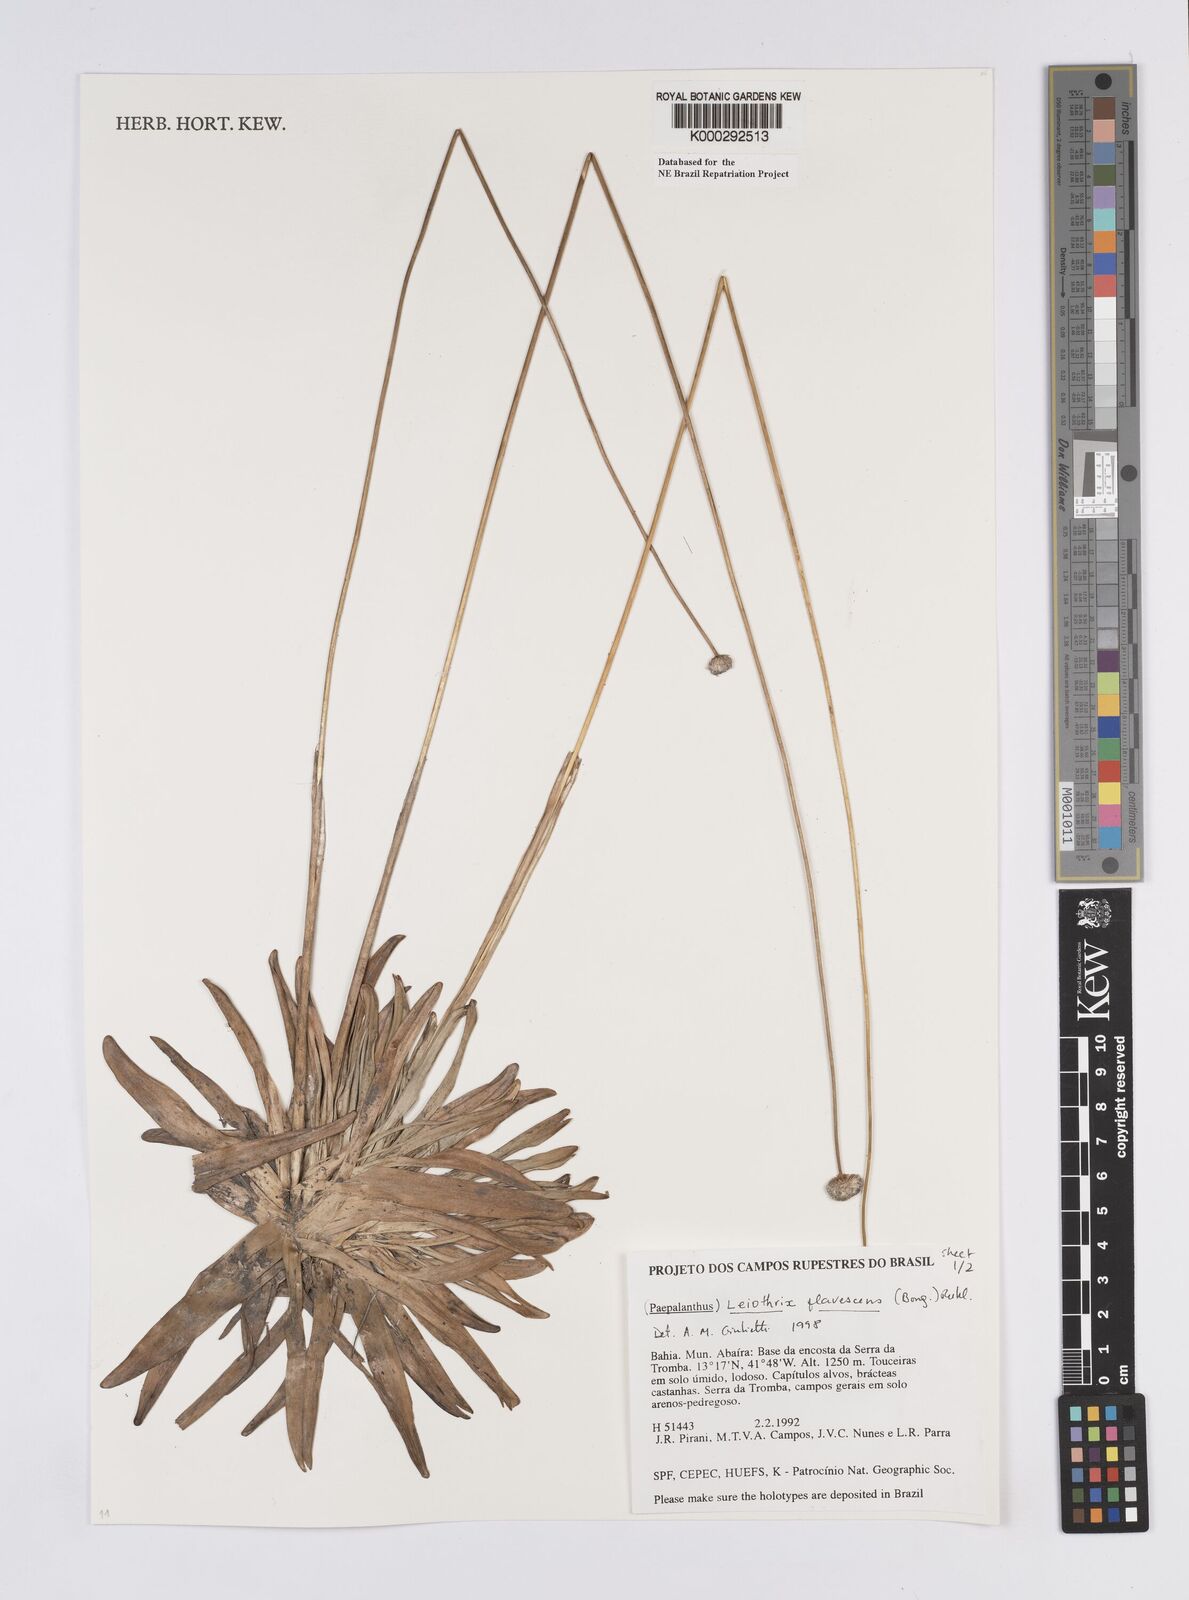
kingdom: Plantae
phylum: Tracheophyta
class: Liliopsida
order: Poales
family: Eriocaulaceae
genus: Leiothrix
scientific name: Leiothrix flavescens
